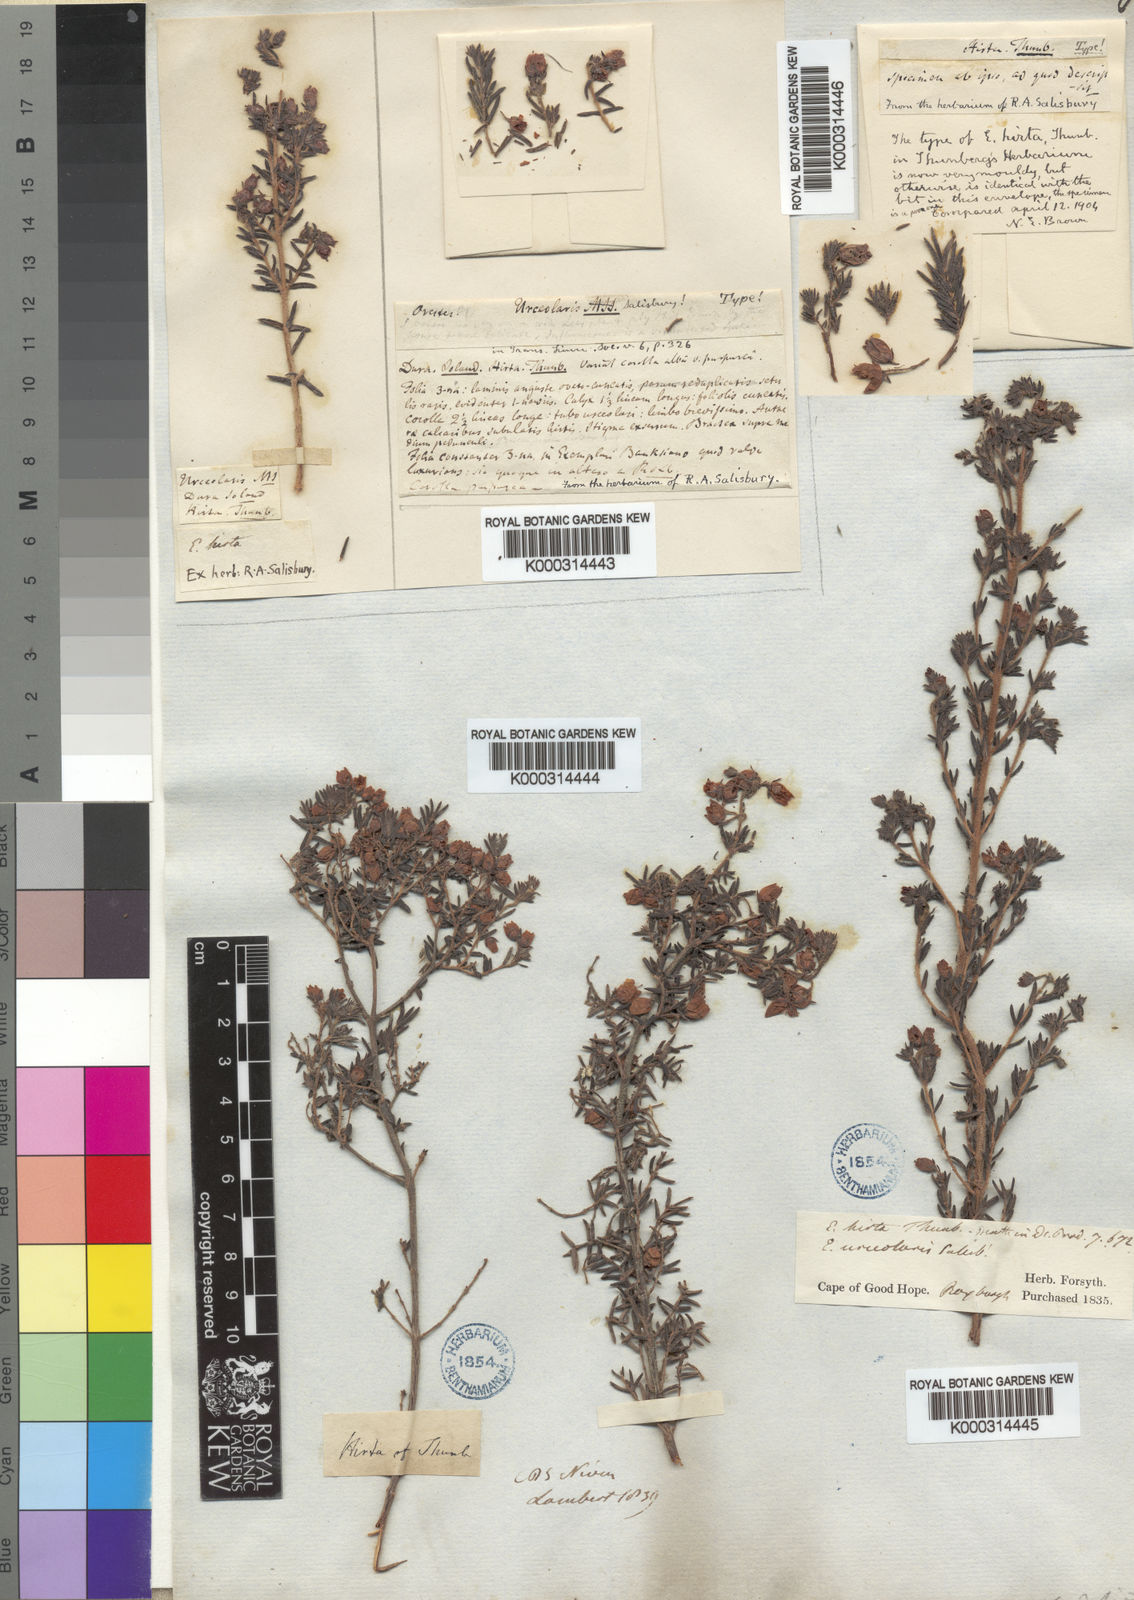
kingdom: Plantae
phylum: Tracheophyta
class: Magnoliopsida
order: Ericales
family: Ericaceae
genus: Erica
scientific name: Erica hirta
